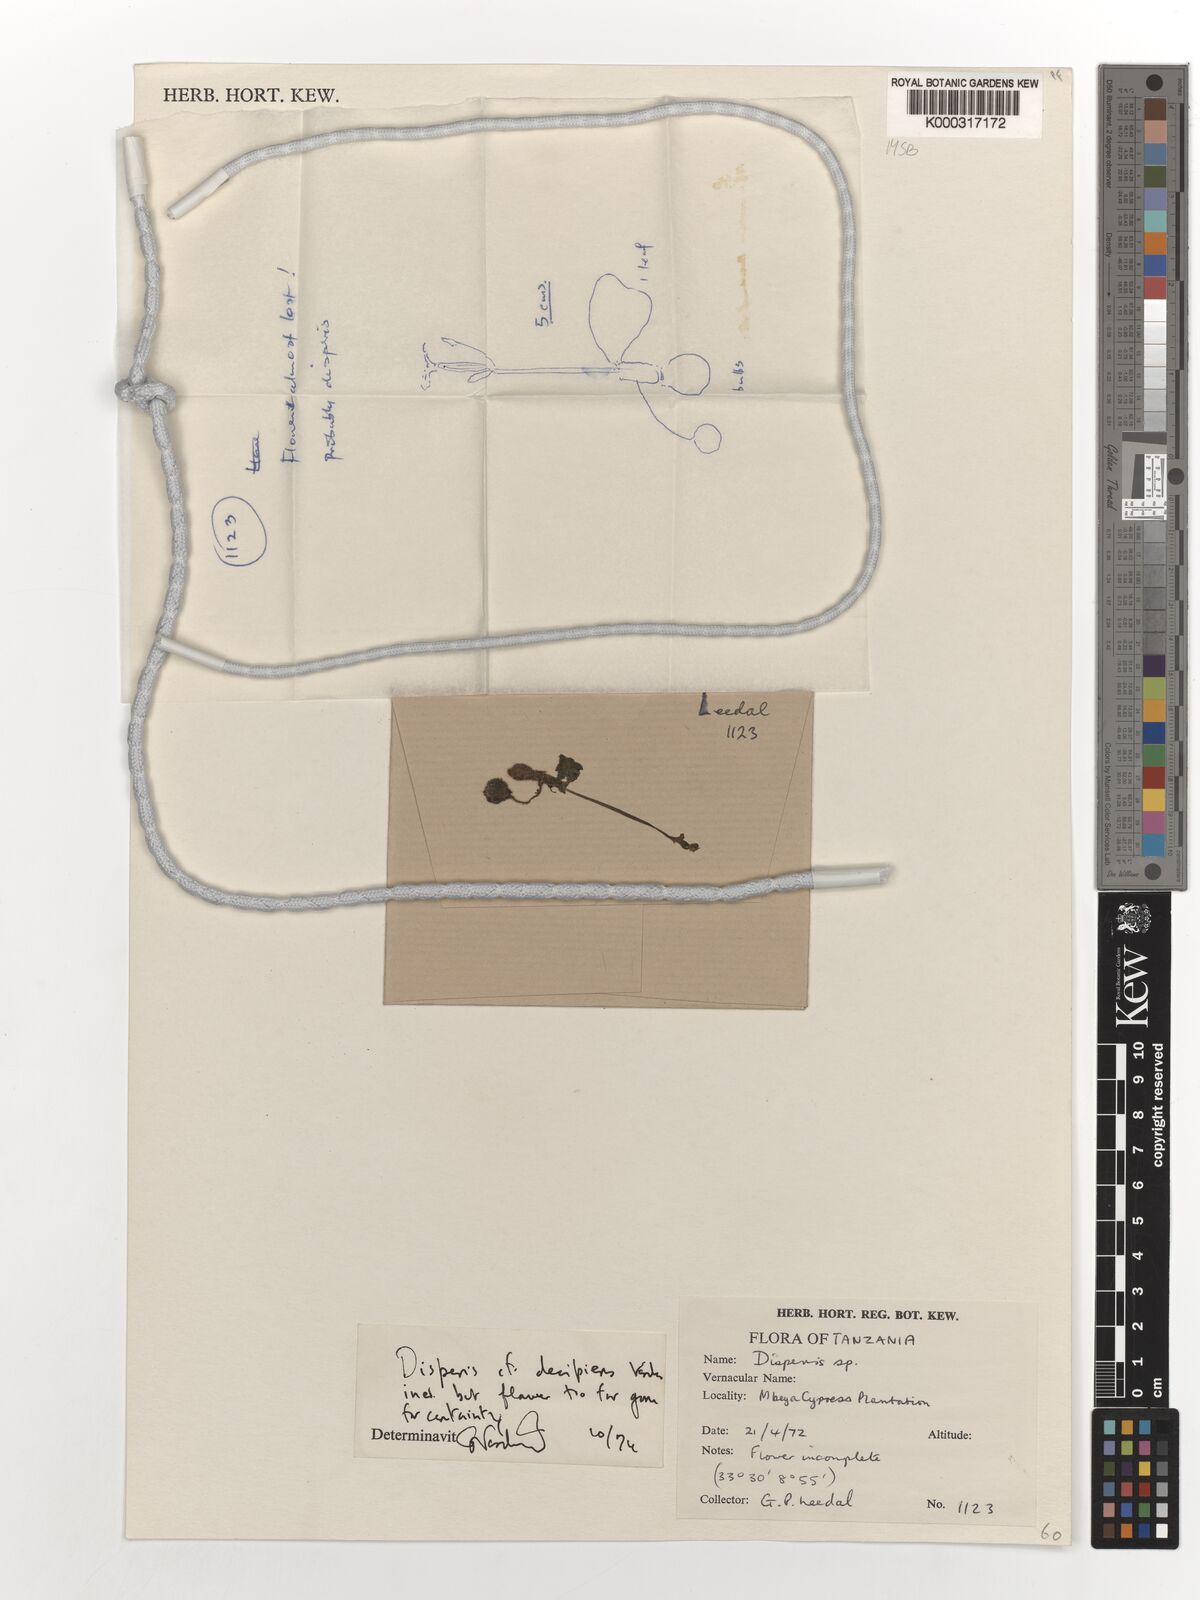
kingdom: Plantae
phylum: Tracheophyta
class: Liliopsida
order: Asparagales
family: Orchidaceae
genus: Disperis
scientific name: Disperis decipiens
